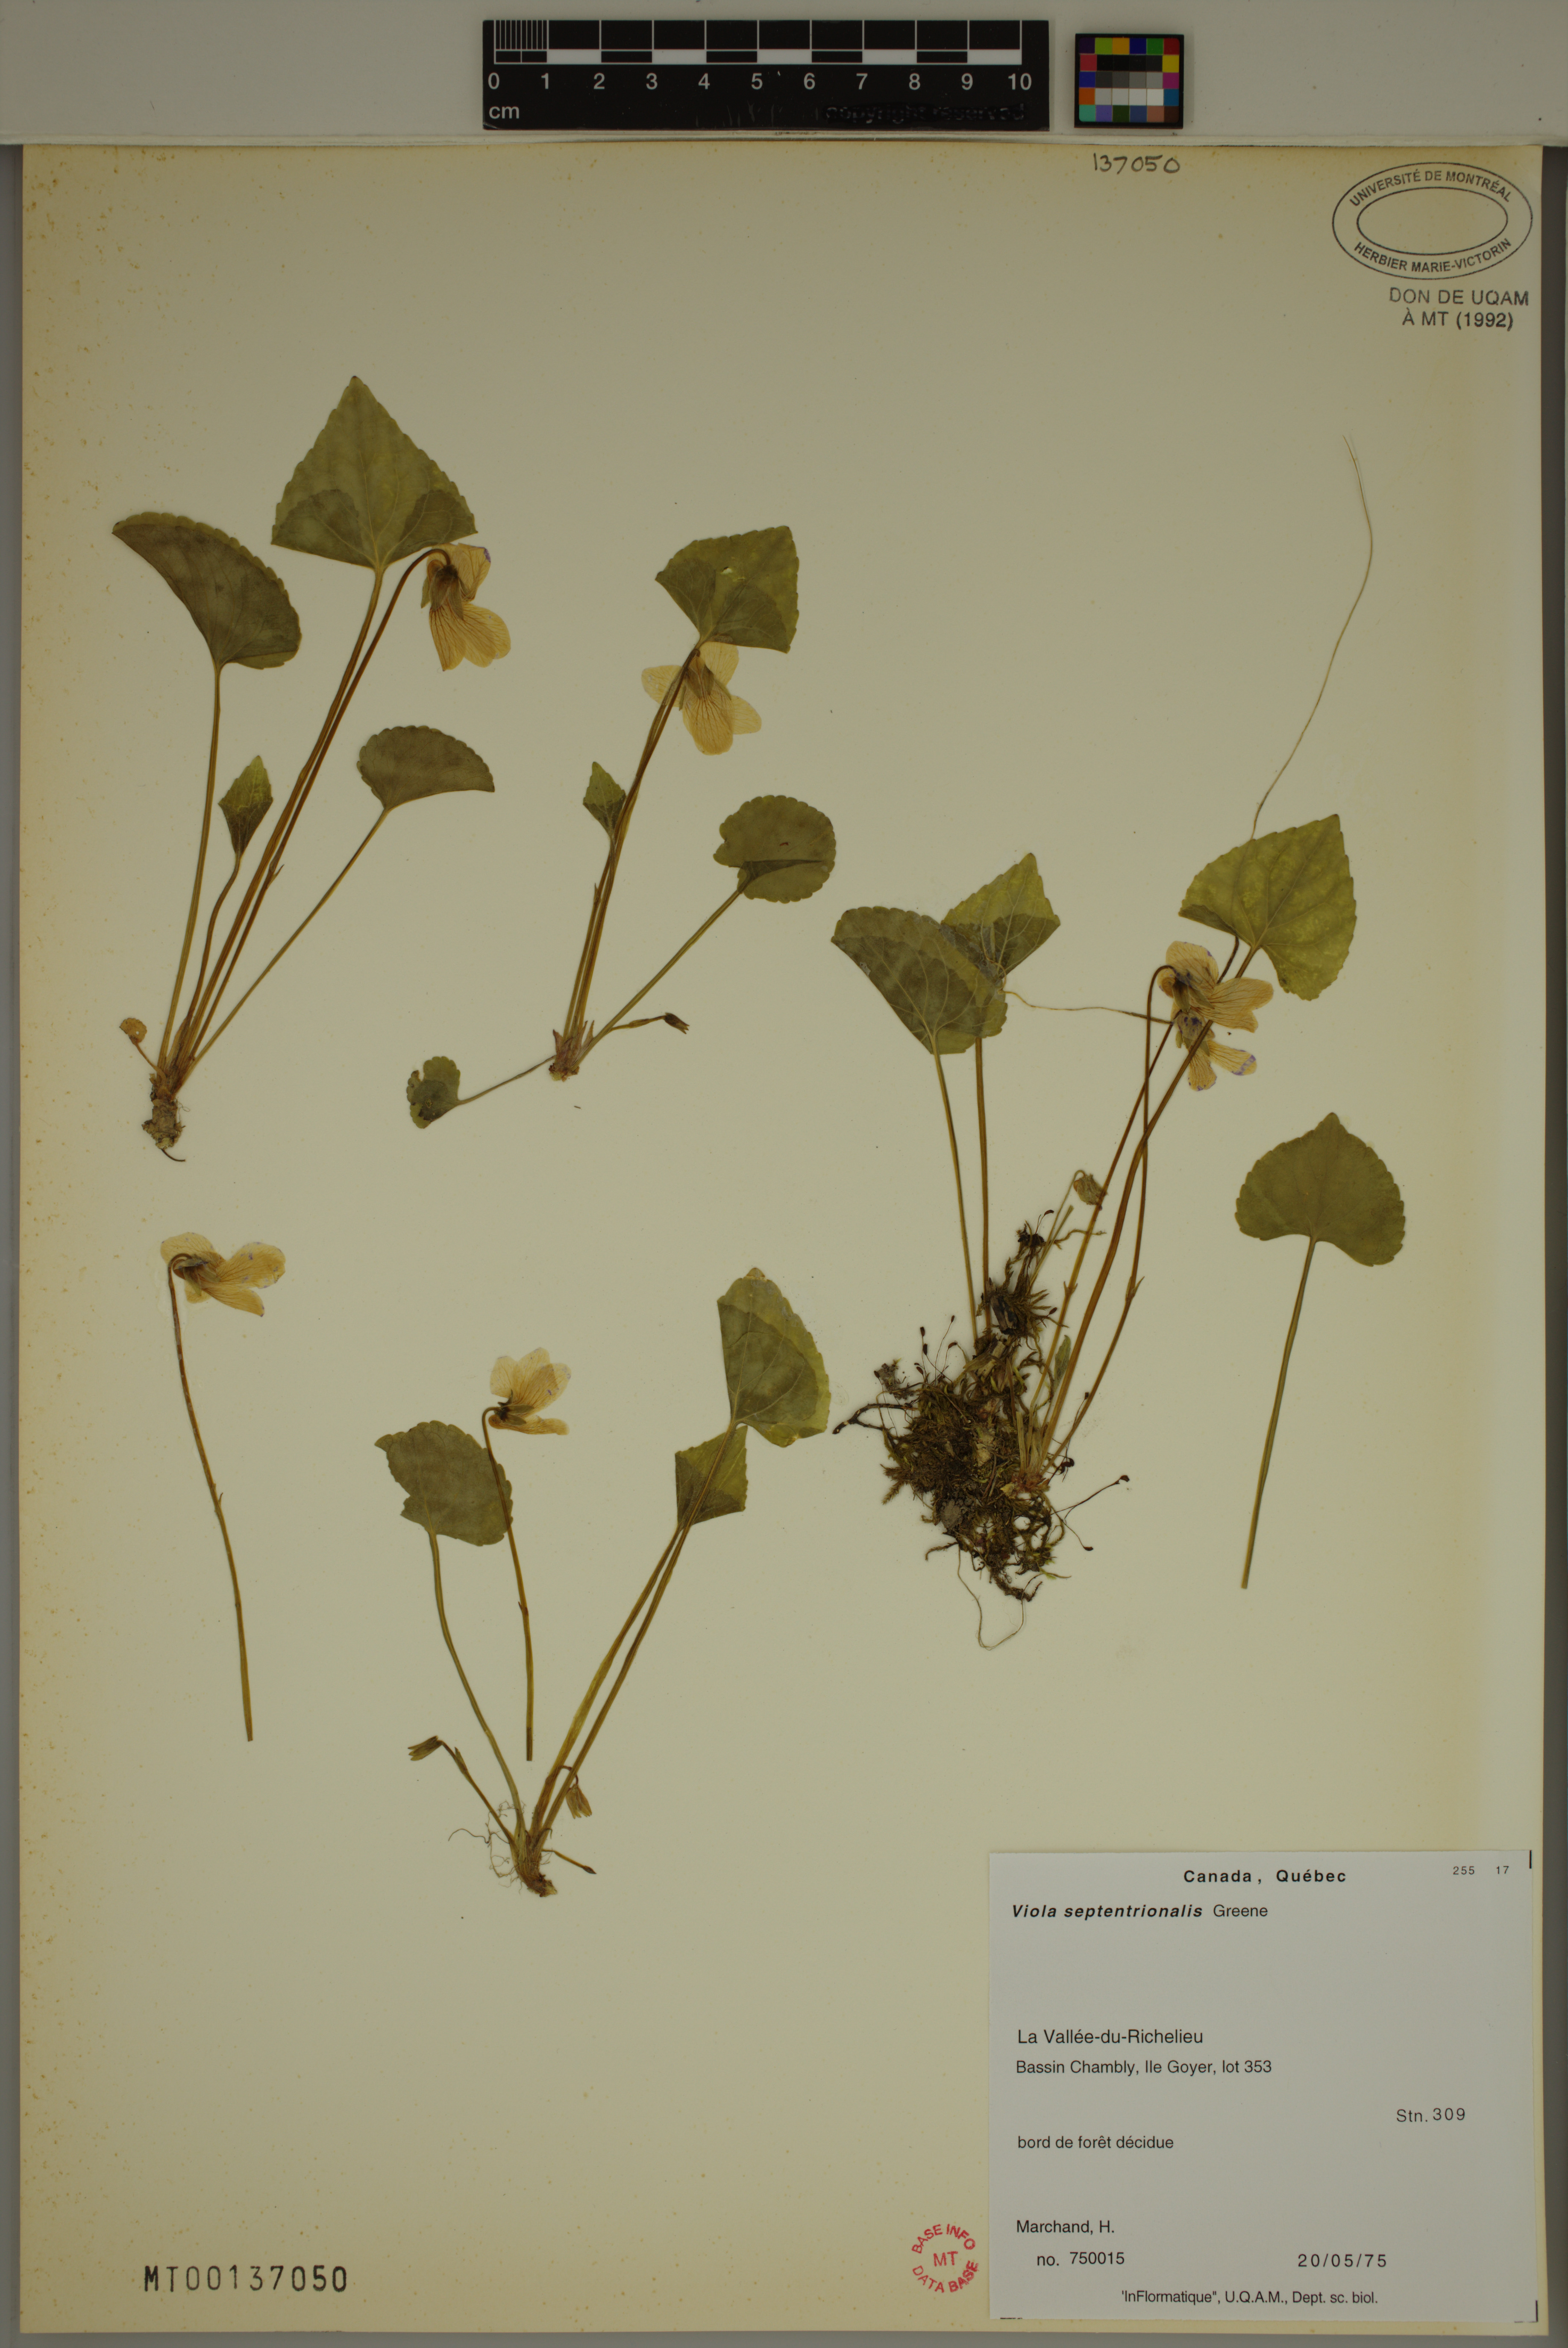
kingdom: Plantae
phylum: Tracheophyta
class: Magnoliopsida
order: Malpighiales
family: Violaceae
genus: Viola
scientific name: Viola sororia
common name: Dooryard violet
